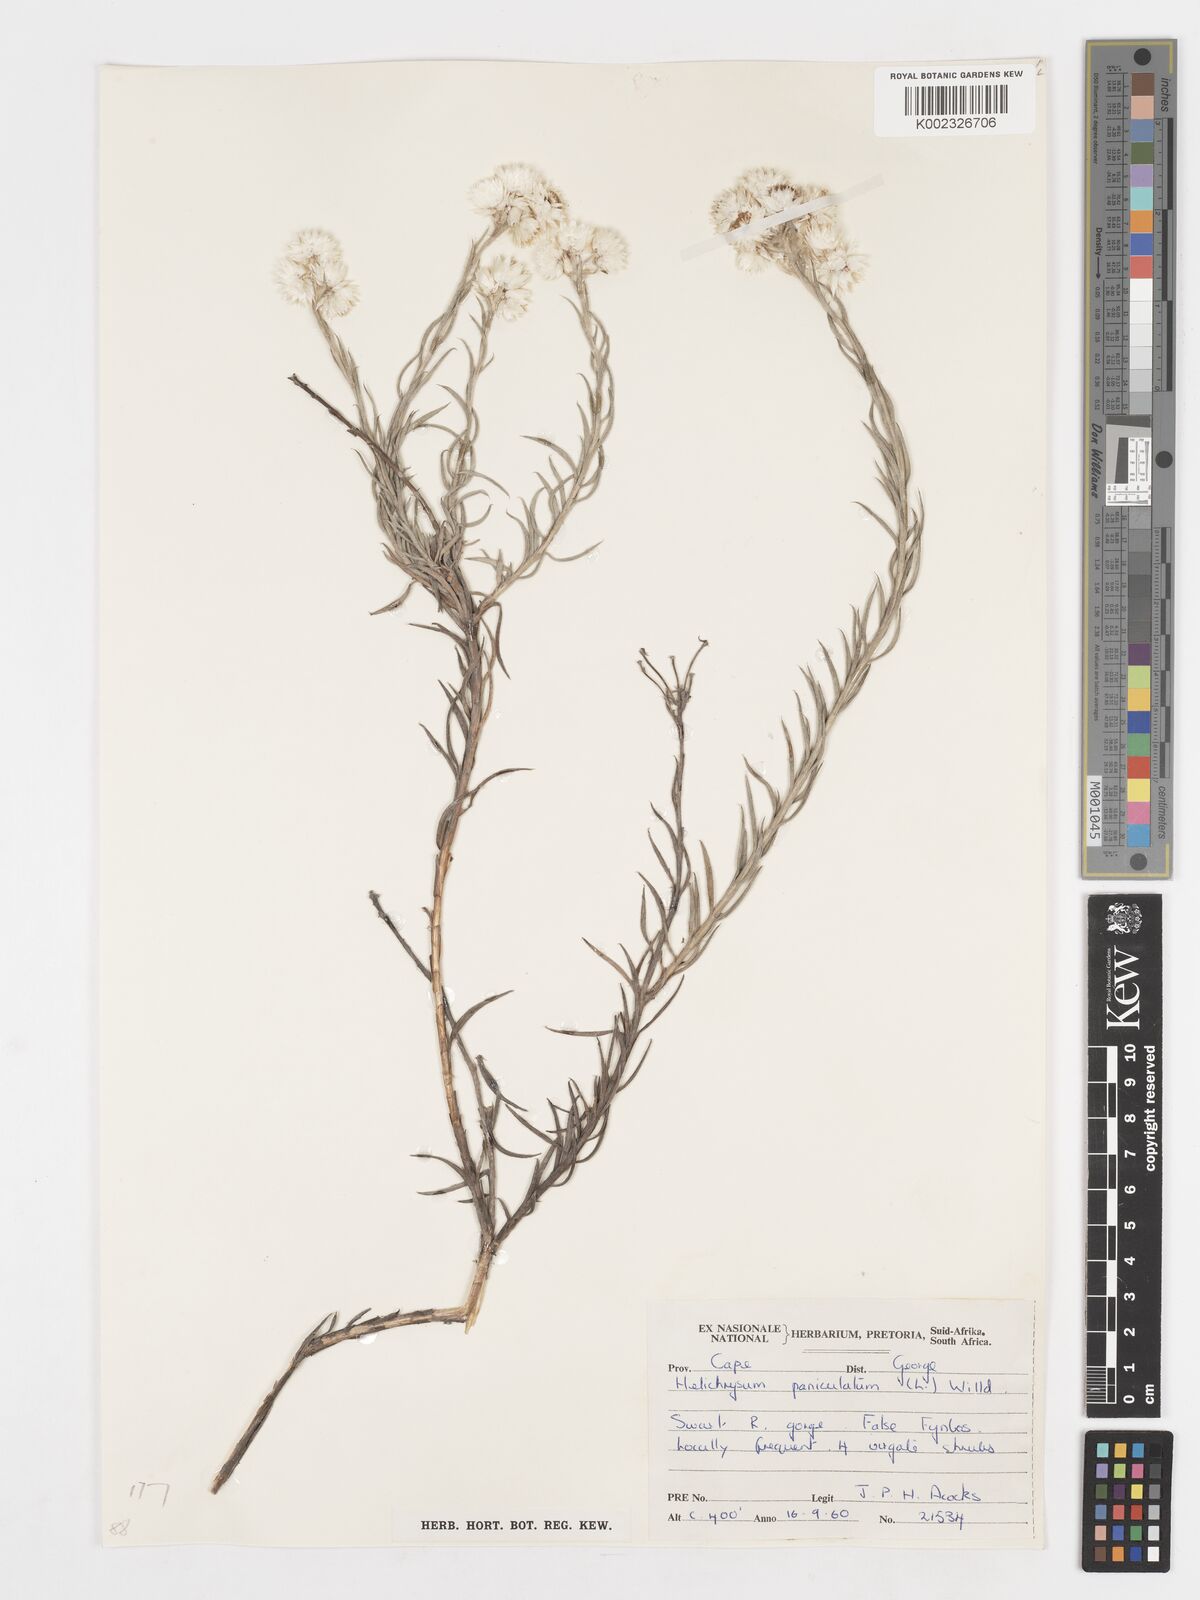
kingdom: Plantae
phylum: Tracheophyta
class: Magnoliopsida
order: Asterales
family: Asteraceae
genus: Achyranthemum
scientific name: Achyranthemum paniculatum
